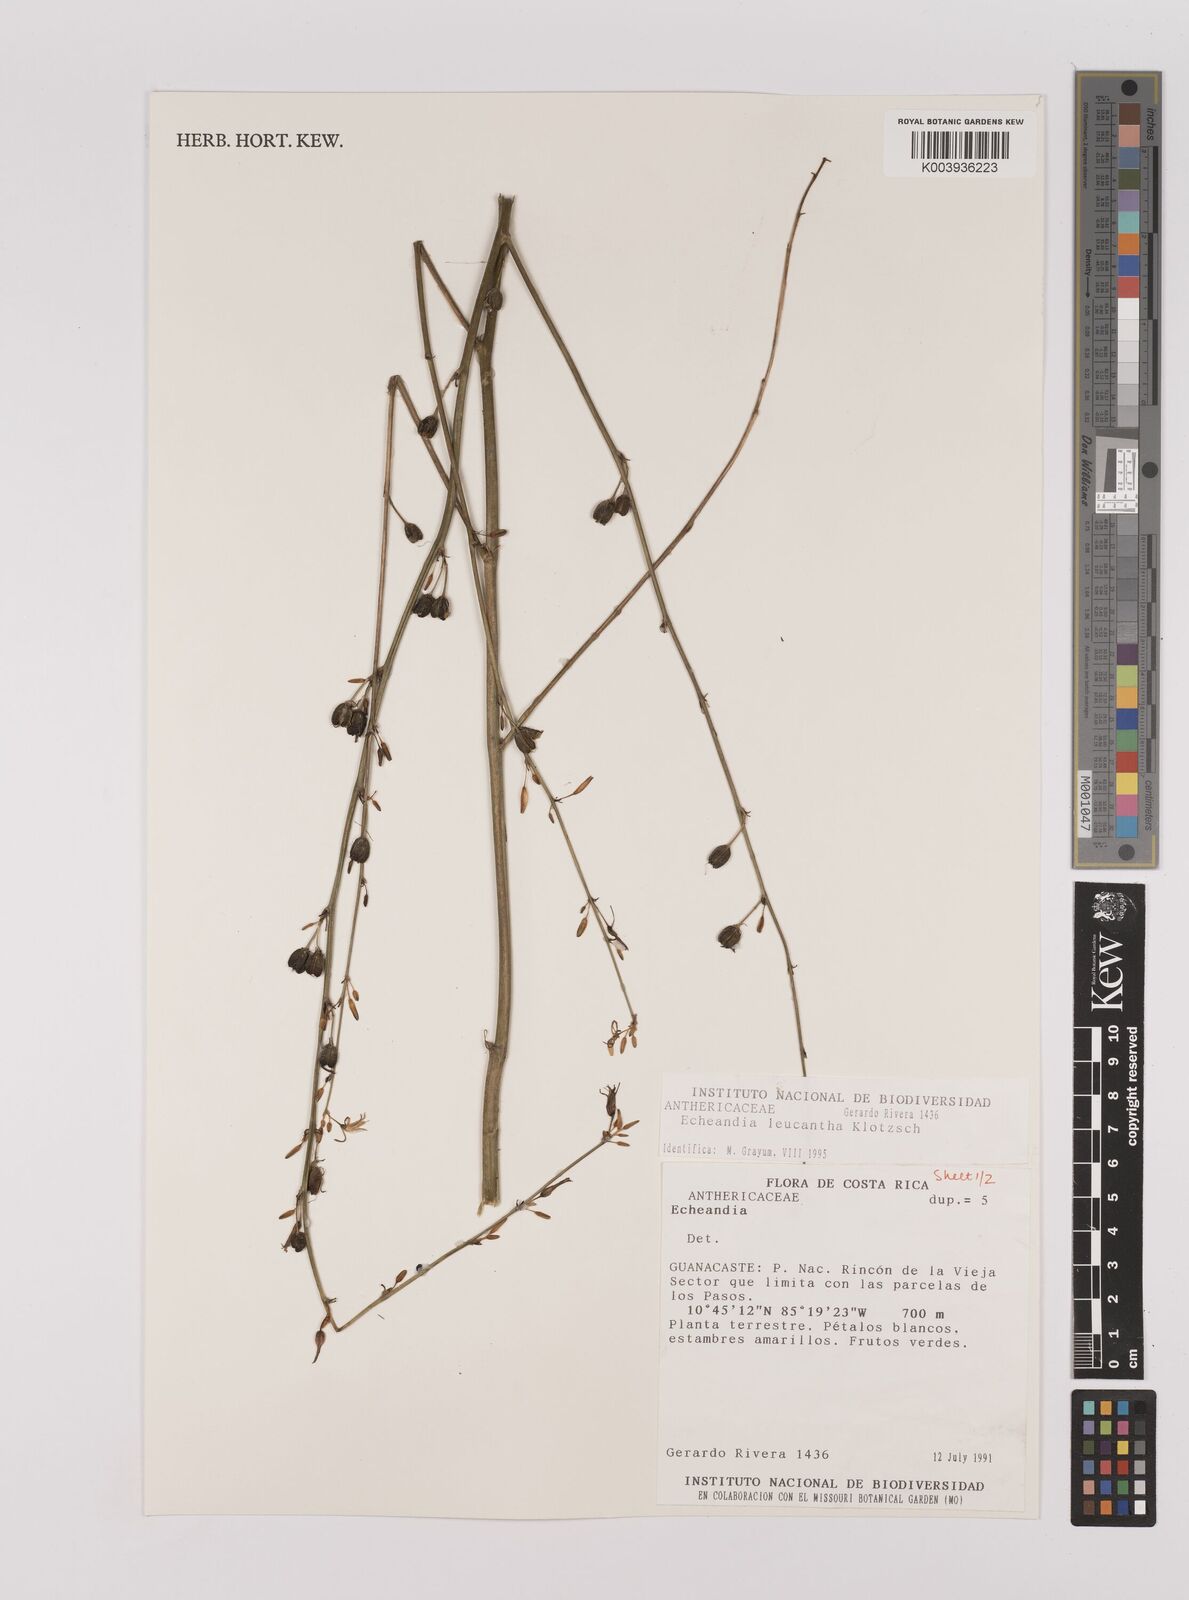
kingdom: Plantae
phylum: Tracheophyta
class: Liliopsida
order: Asparagales
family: Asparagaceae
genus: Echeandia
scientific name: Echeandia
